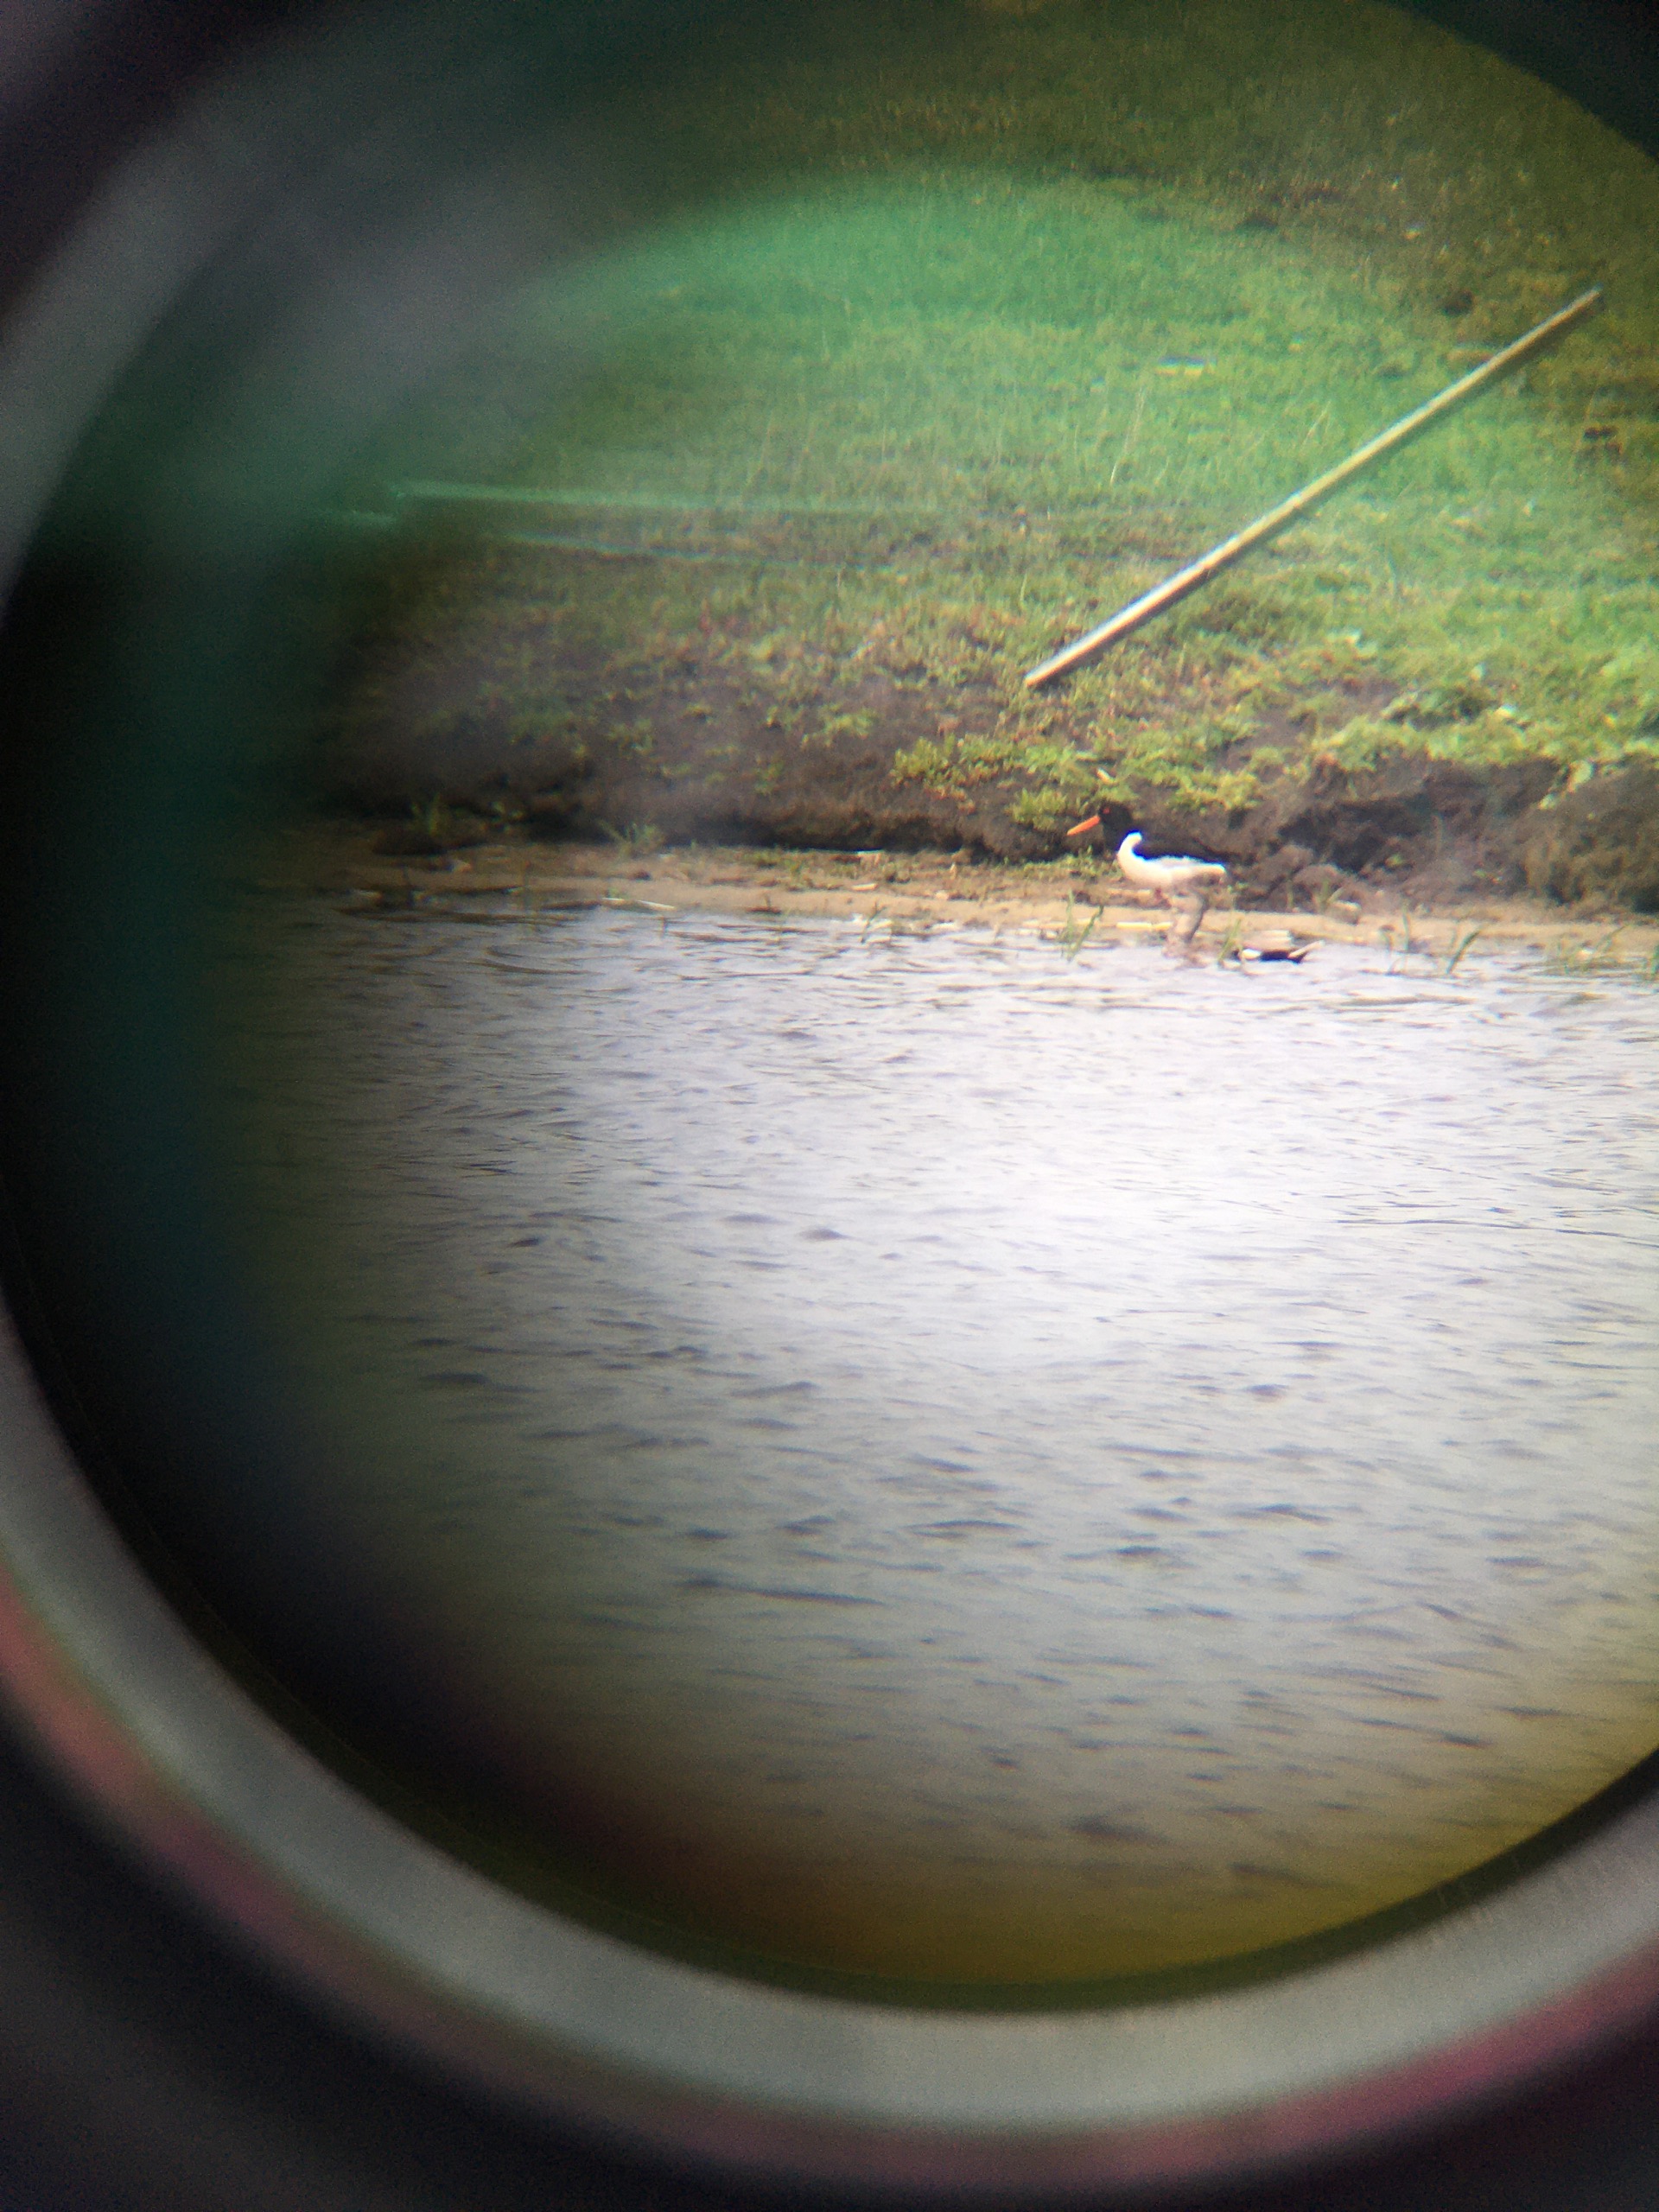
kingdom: Animalia
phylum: Chordata
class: Aves
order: Charadriiformes
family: Haematopodidae
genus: Haematopus
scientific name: Haematopus ostralegus
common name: Strandskade
